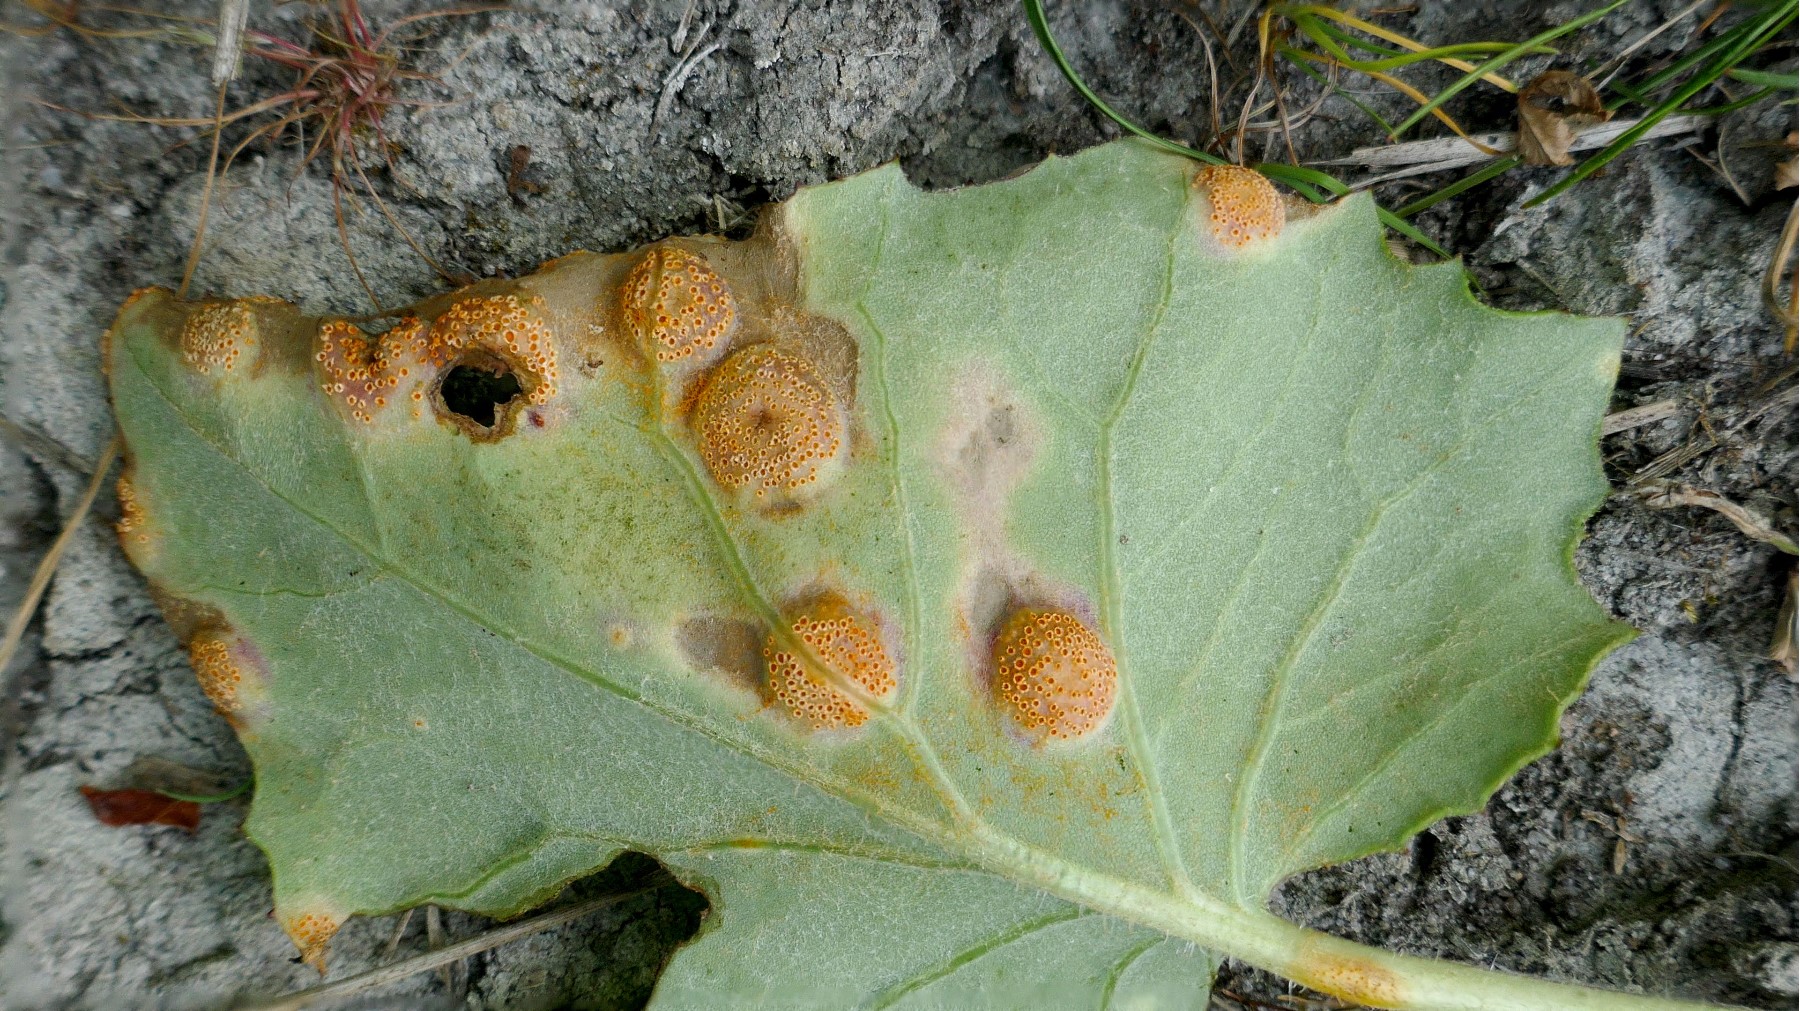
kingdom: Fungi
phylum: Basidiomycota
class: Pucciniomycetes
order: Pucciniales
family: Pucciniaceae
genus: Puccinia
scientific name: Puccinia poarum
